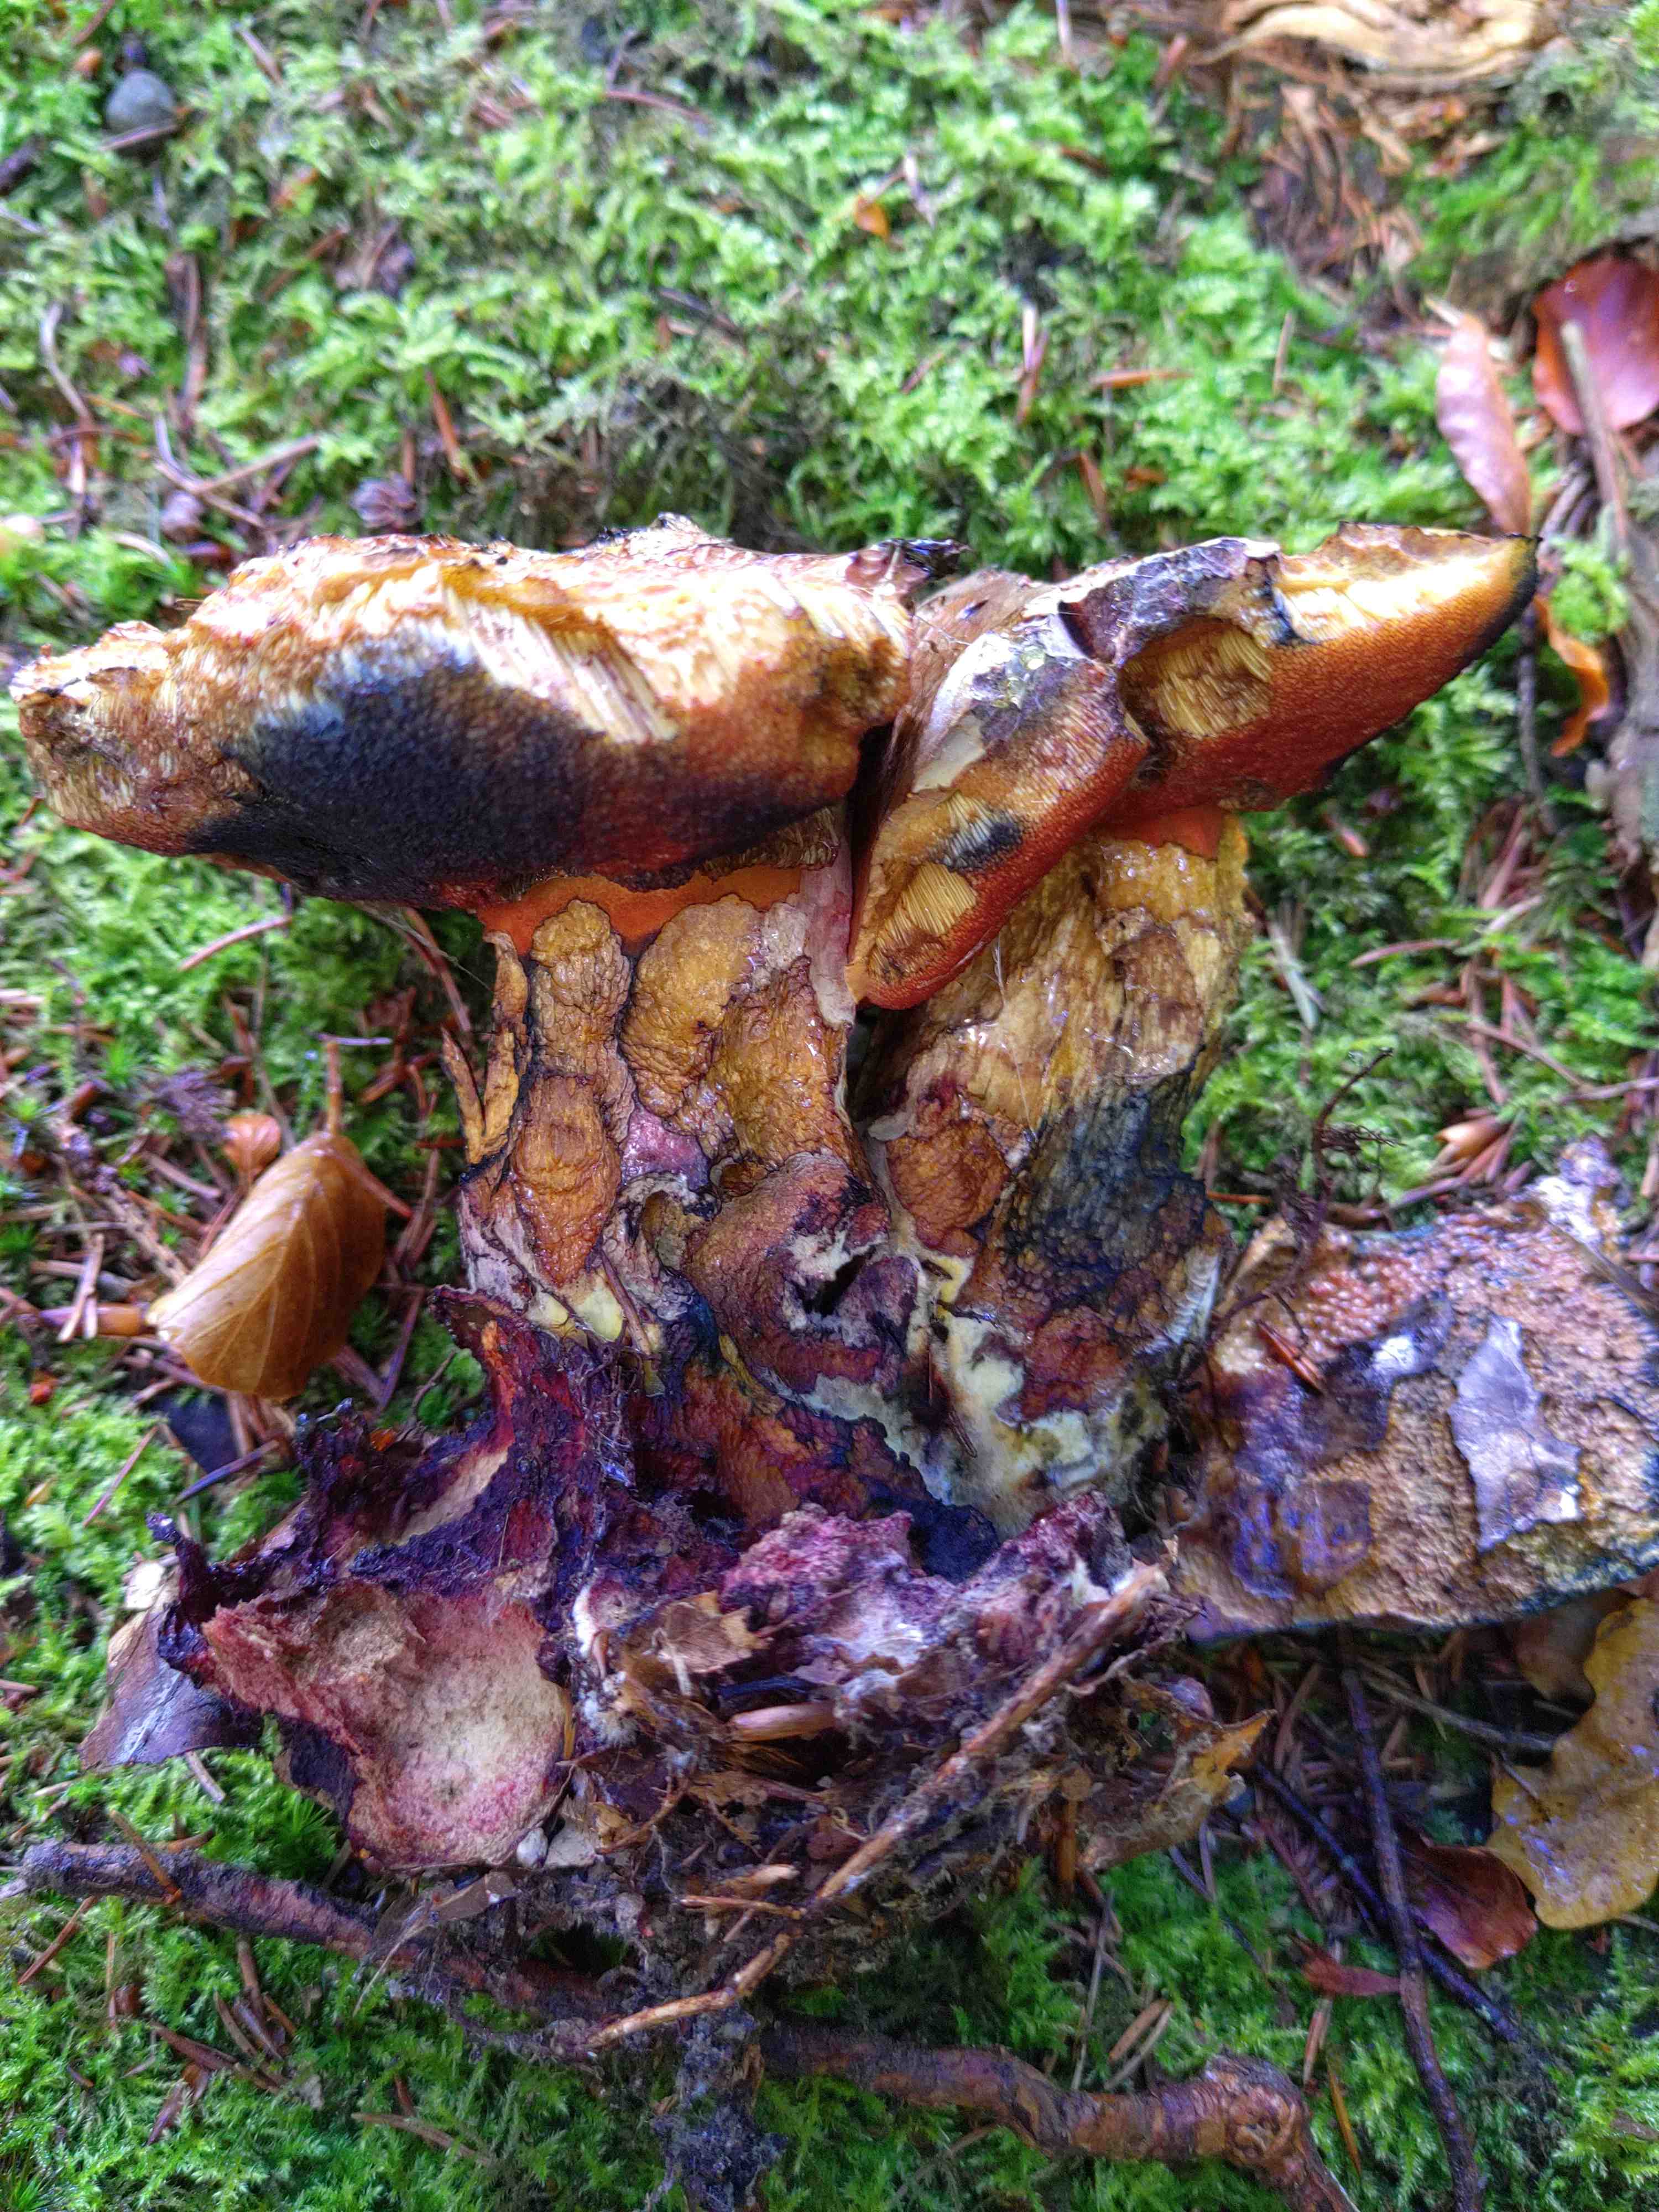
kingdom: Fungi
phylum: Basidiomycota
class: Agaricomycetes
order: Boletales
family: Boletaceae
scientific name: Boletaceae
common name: rørhatfamilien
